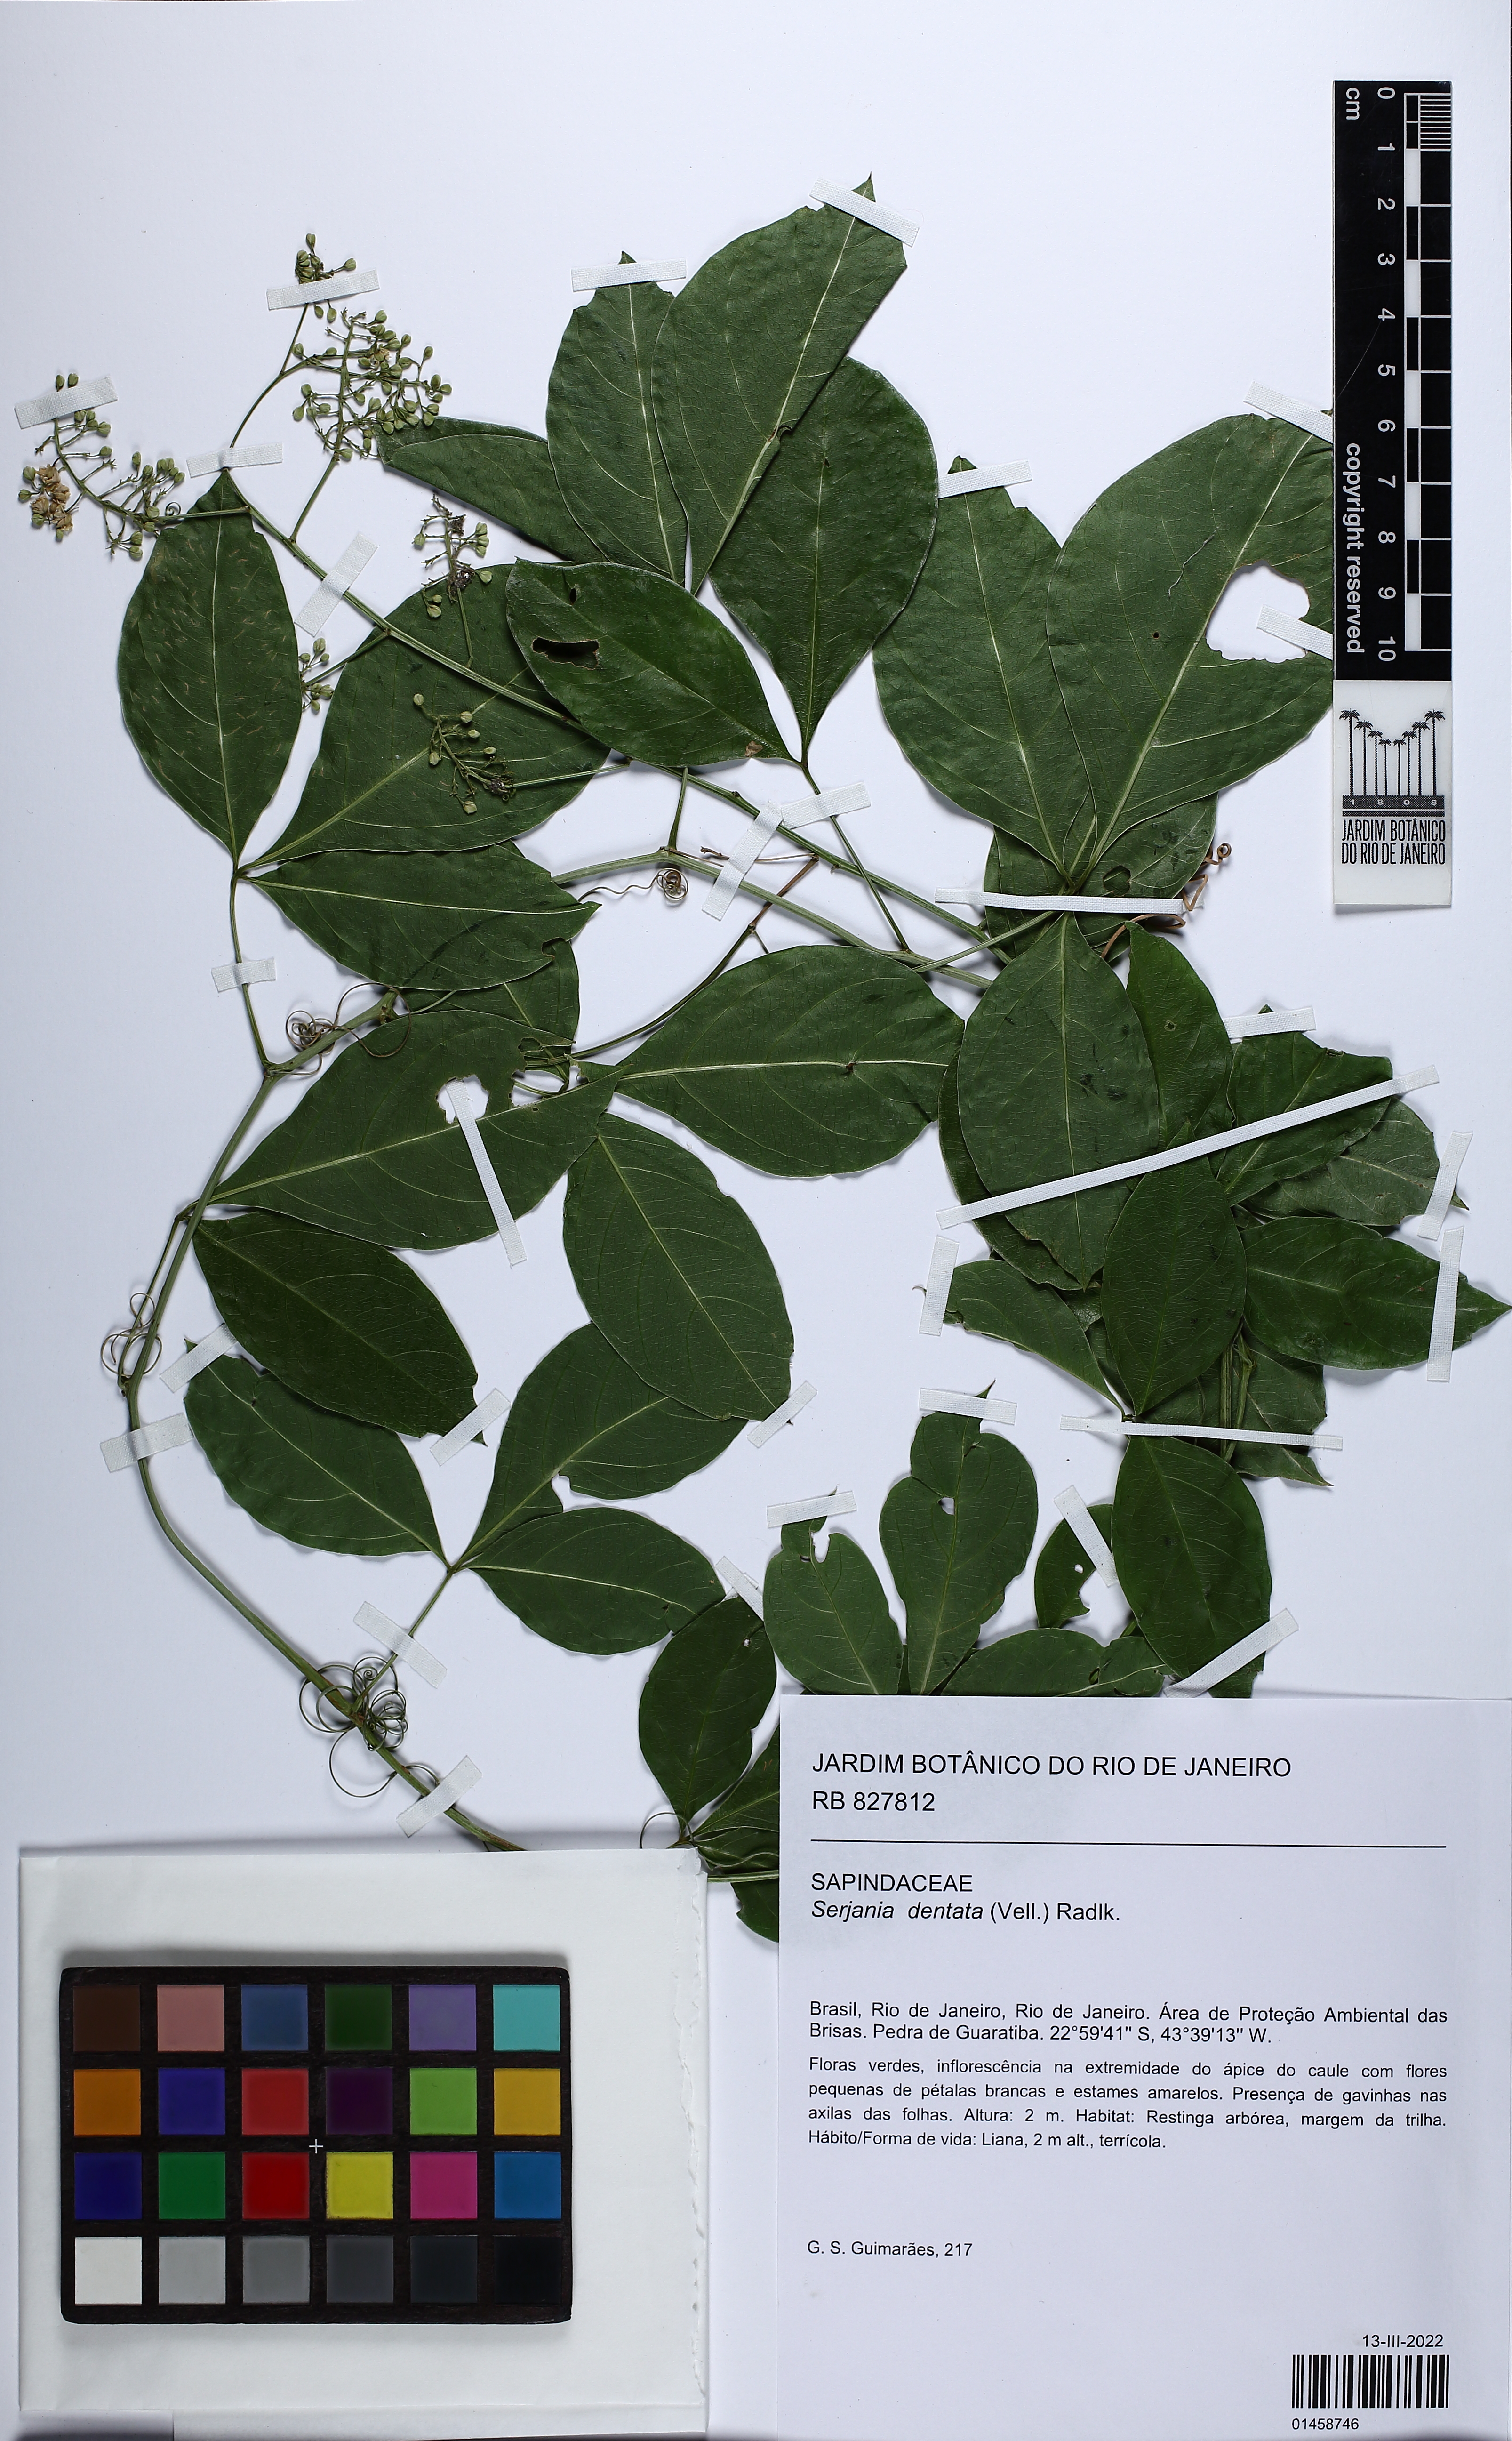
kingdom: Plantae
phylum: Tracheophyta
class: Magnoliopsida
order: Sapindales
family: Sapindaceae
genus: Serjania
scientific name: Serjania dentata
